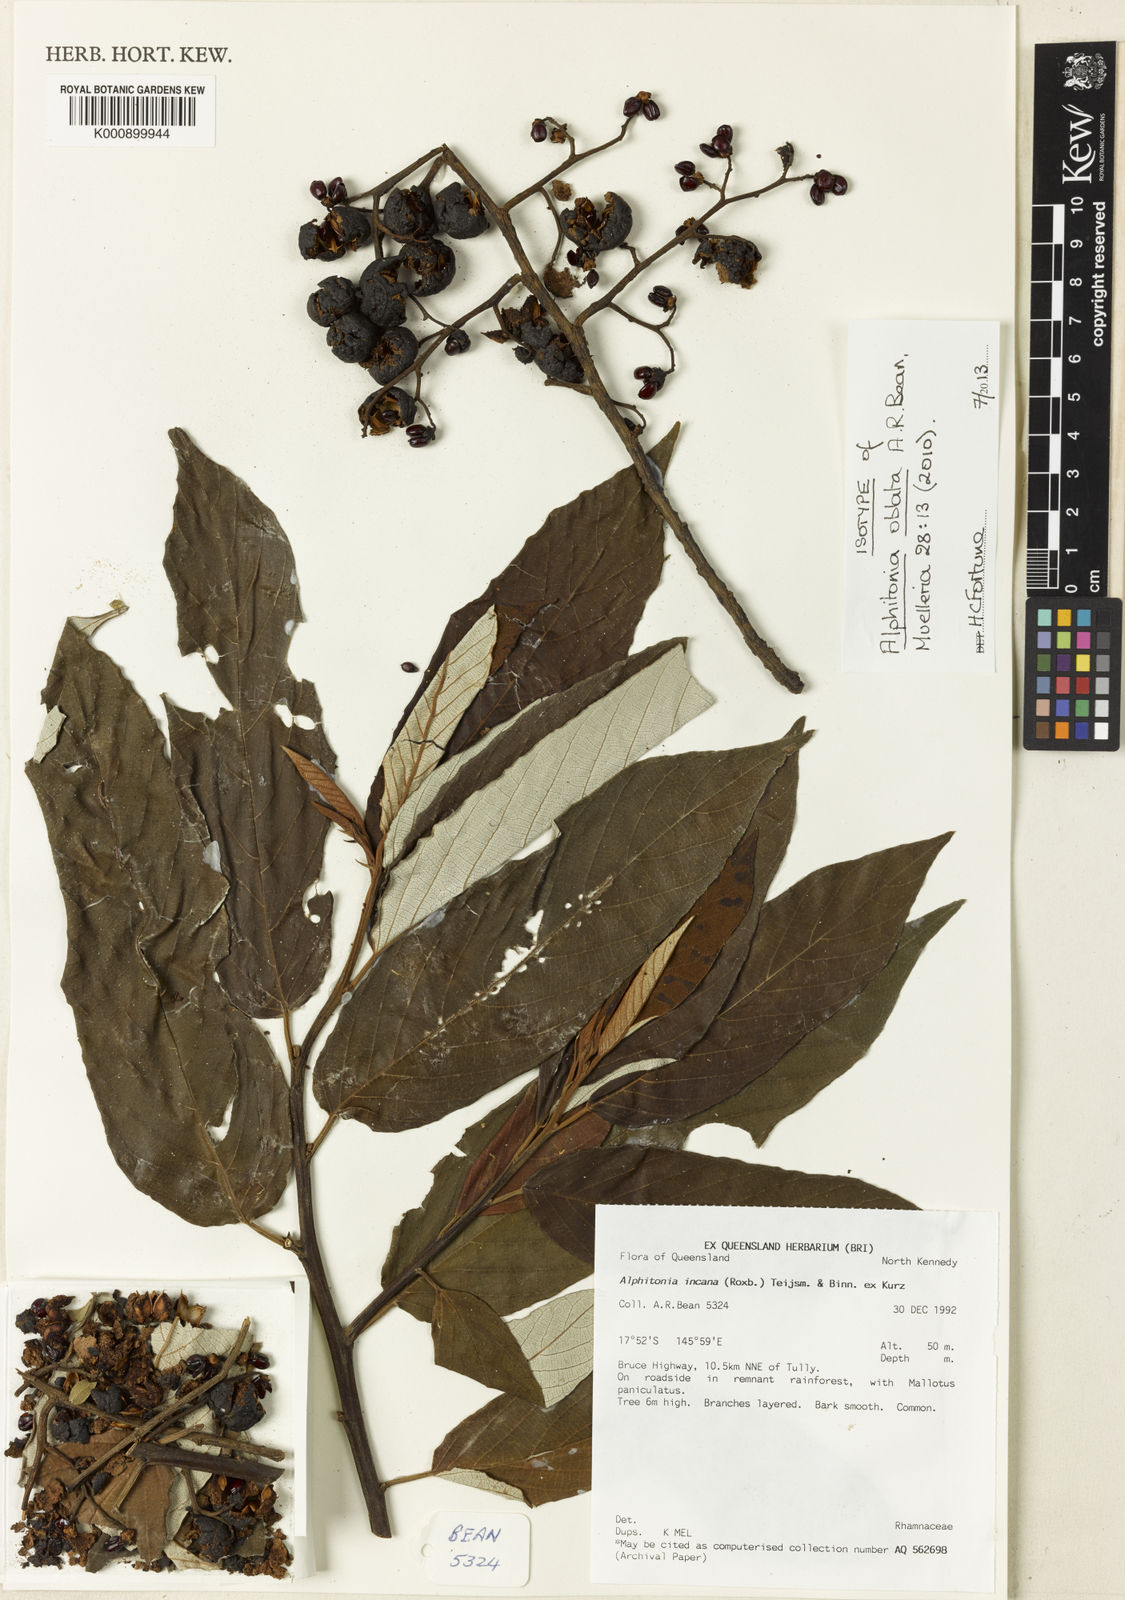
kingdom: Plantae
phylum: Tracheophyta
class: Magnoliopsida
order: Rosales
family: Rhamnaceae
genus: Alphitonia
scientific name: Alphitonia oblata
